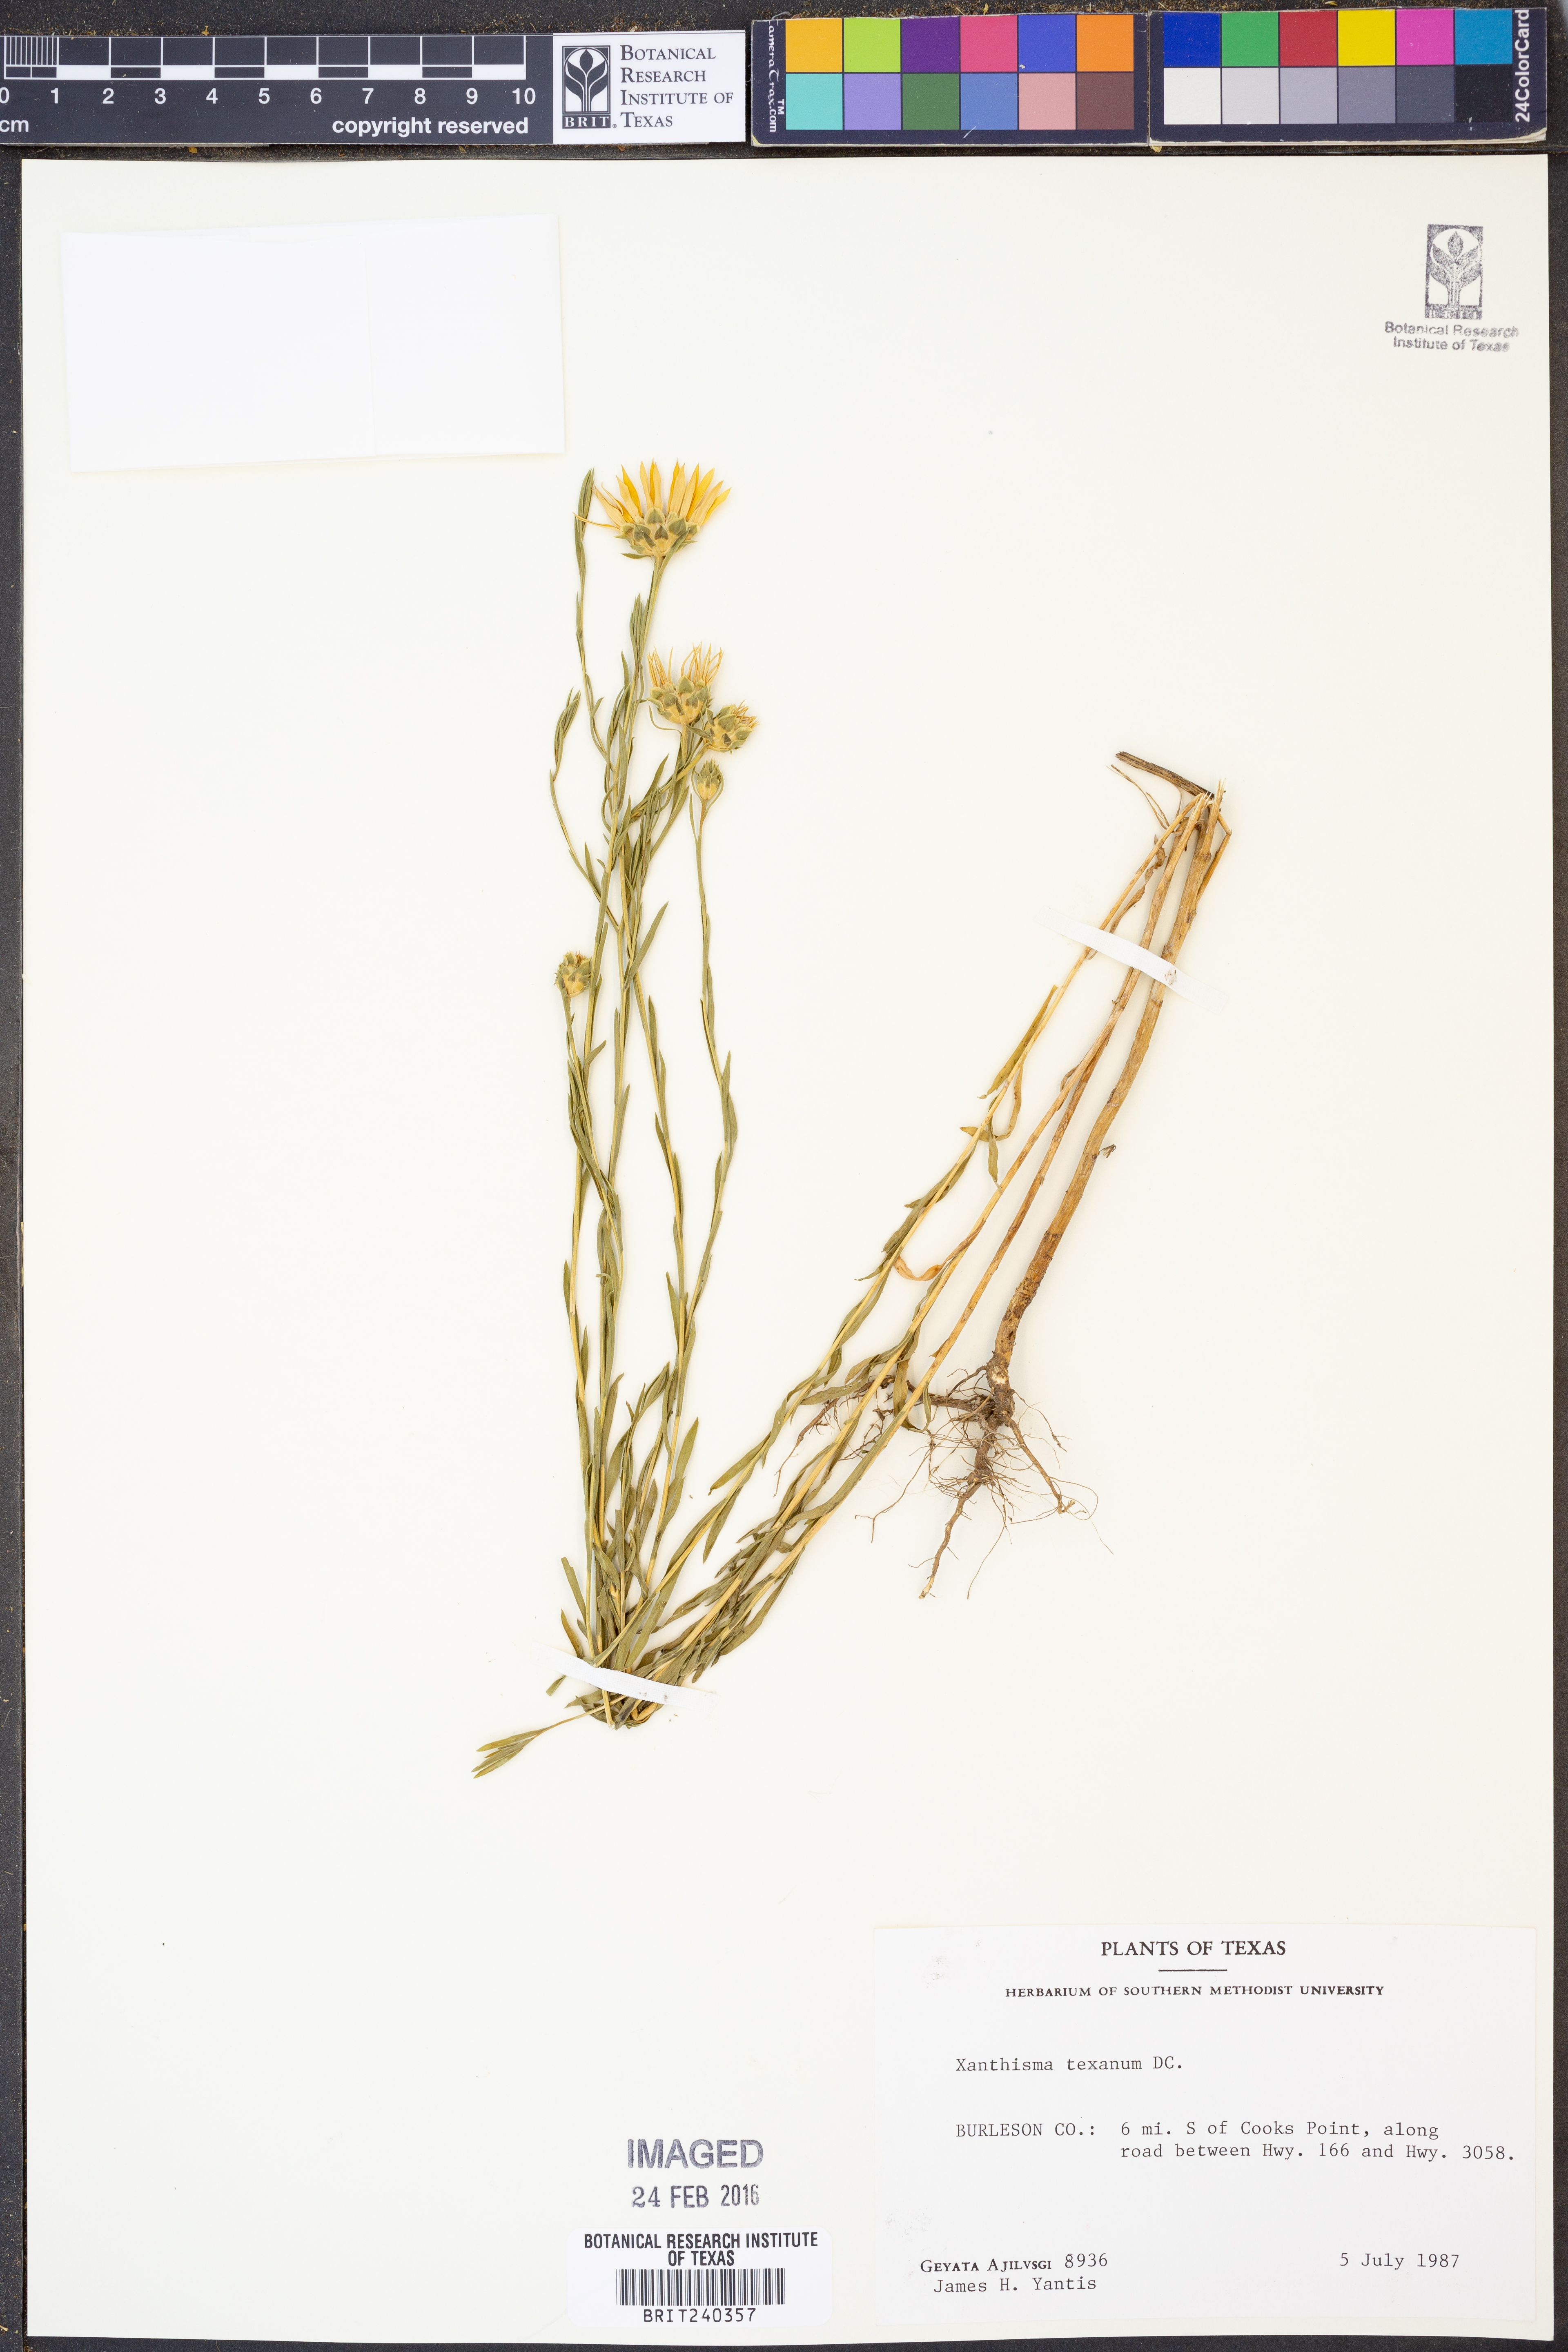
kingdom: Plantae
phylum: Tracheophyta
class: Magnoliopsida
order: Asterales
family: Asteraceae
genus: Xanthisma
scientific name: Xanthisma texanum
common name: Texas sleepy daisy
